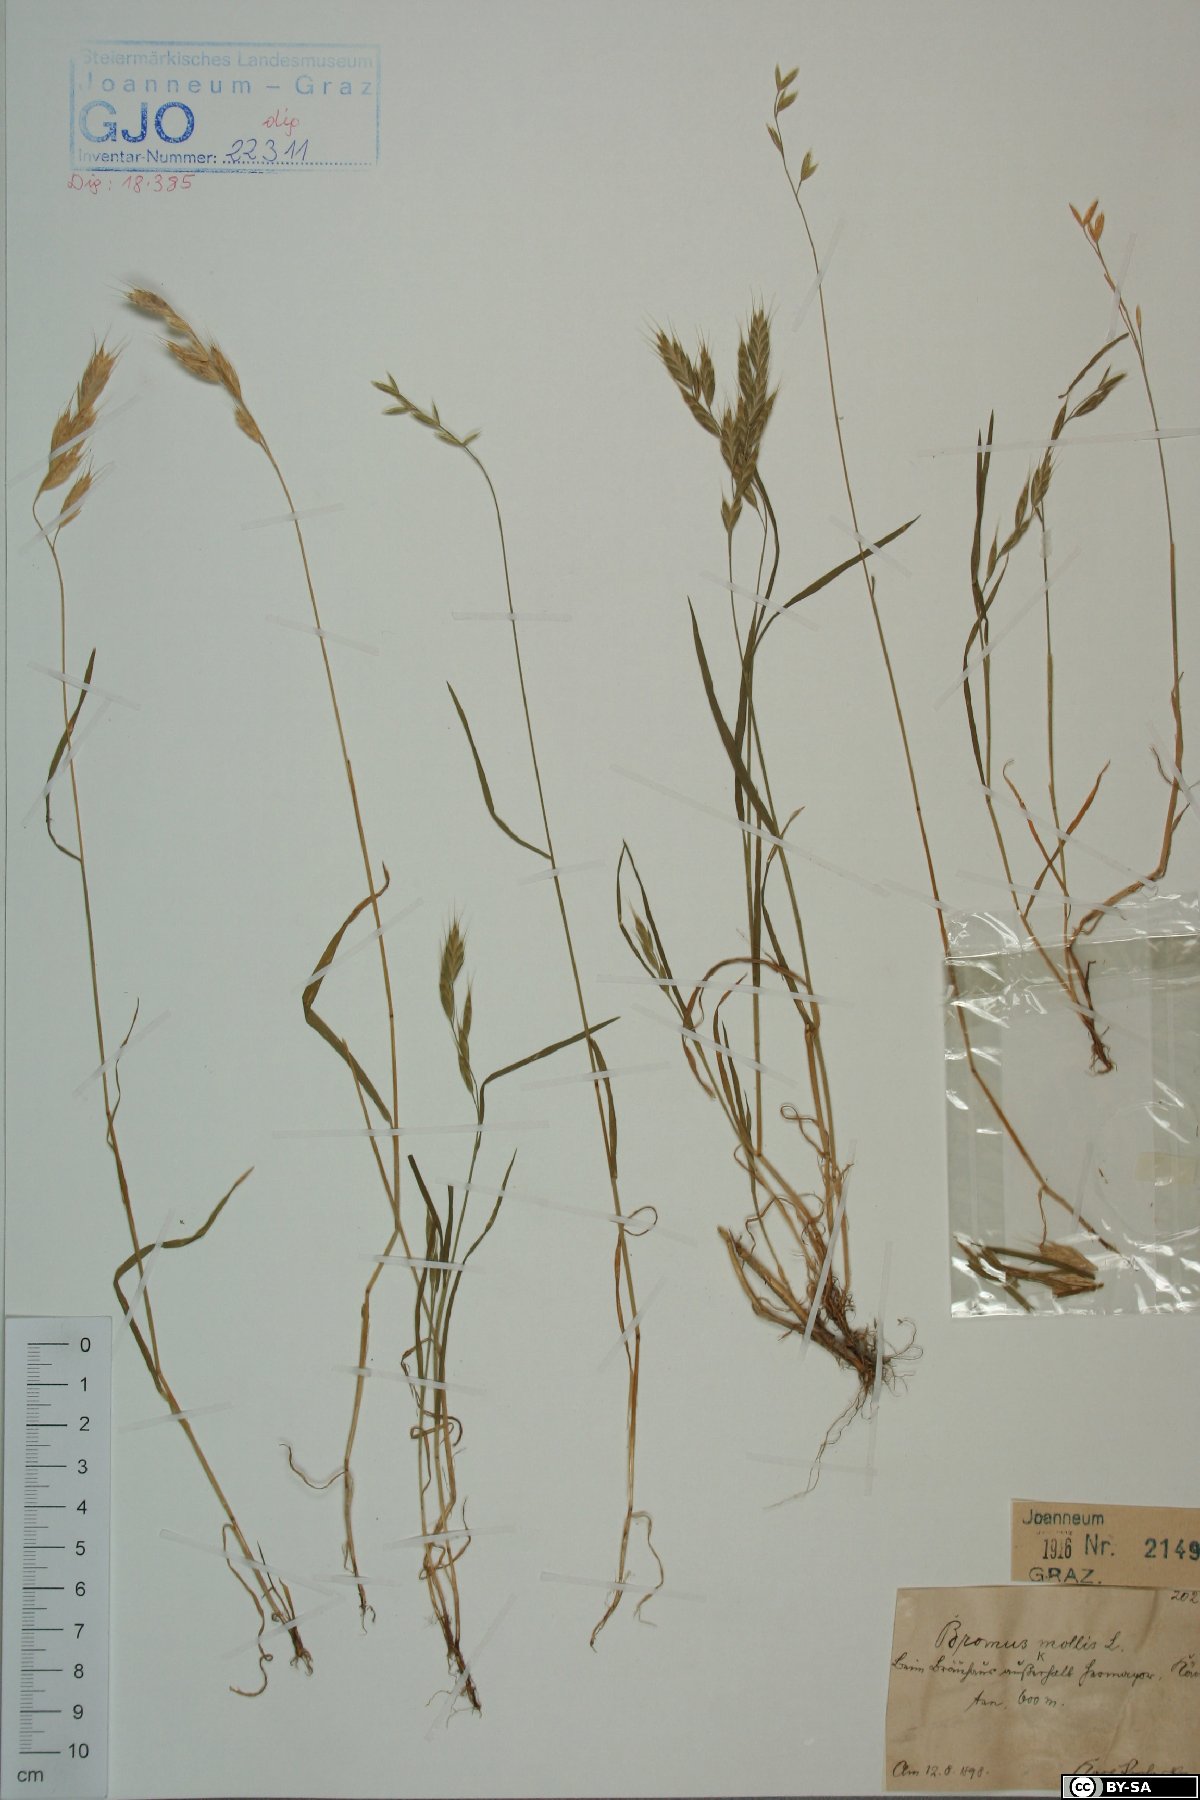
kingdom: Plantae
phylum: Tracheophyta
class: Liliopsida
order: Poales
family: Poaceae
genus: Bromus
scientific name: Bromus hordeaceus
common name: Soft brome
